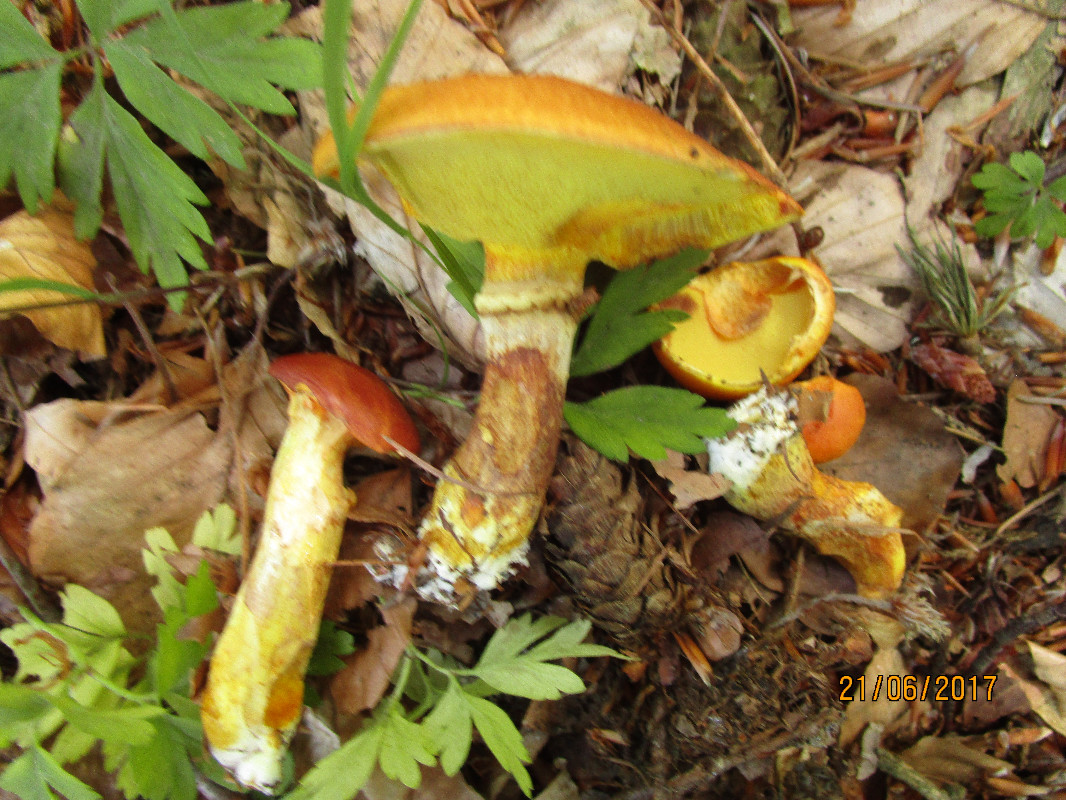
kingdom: Fungi
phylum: Basidiomycota
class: Agaricomycetes
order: Boletales
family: Suillaceae
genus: Suillus
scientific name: Suillus grevillei
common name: lærke-slimrørhat
